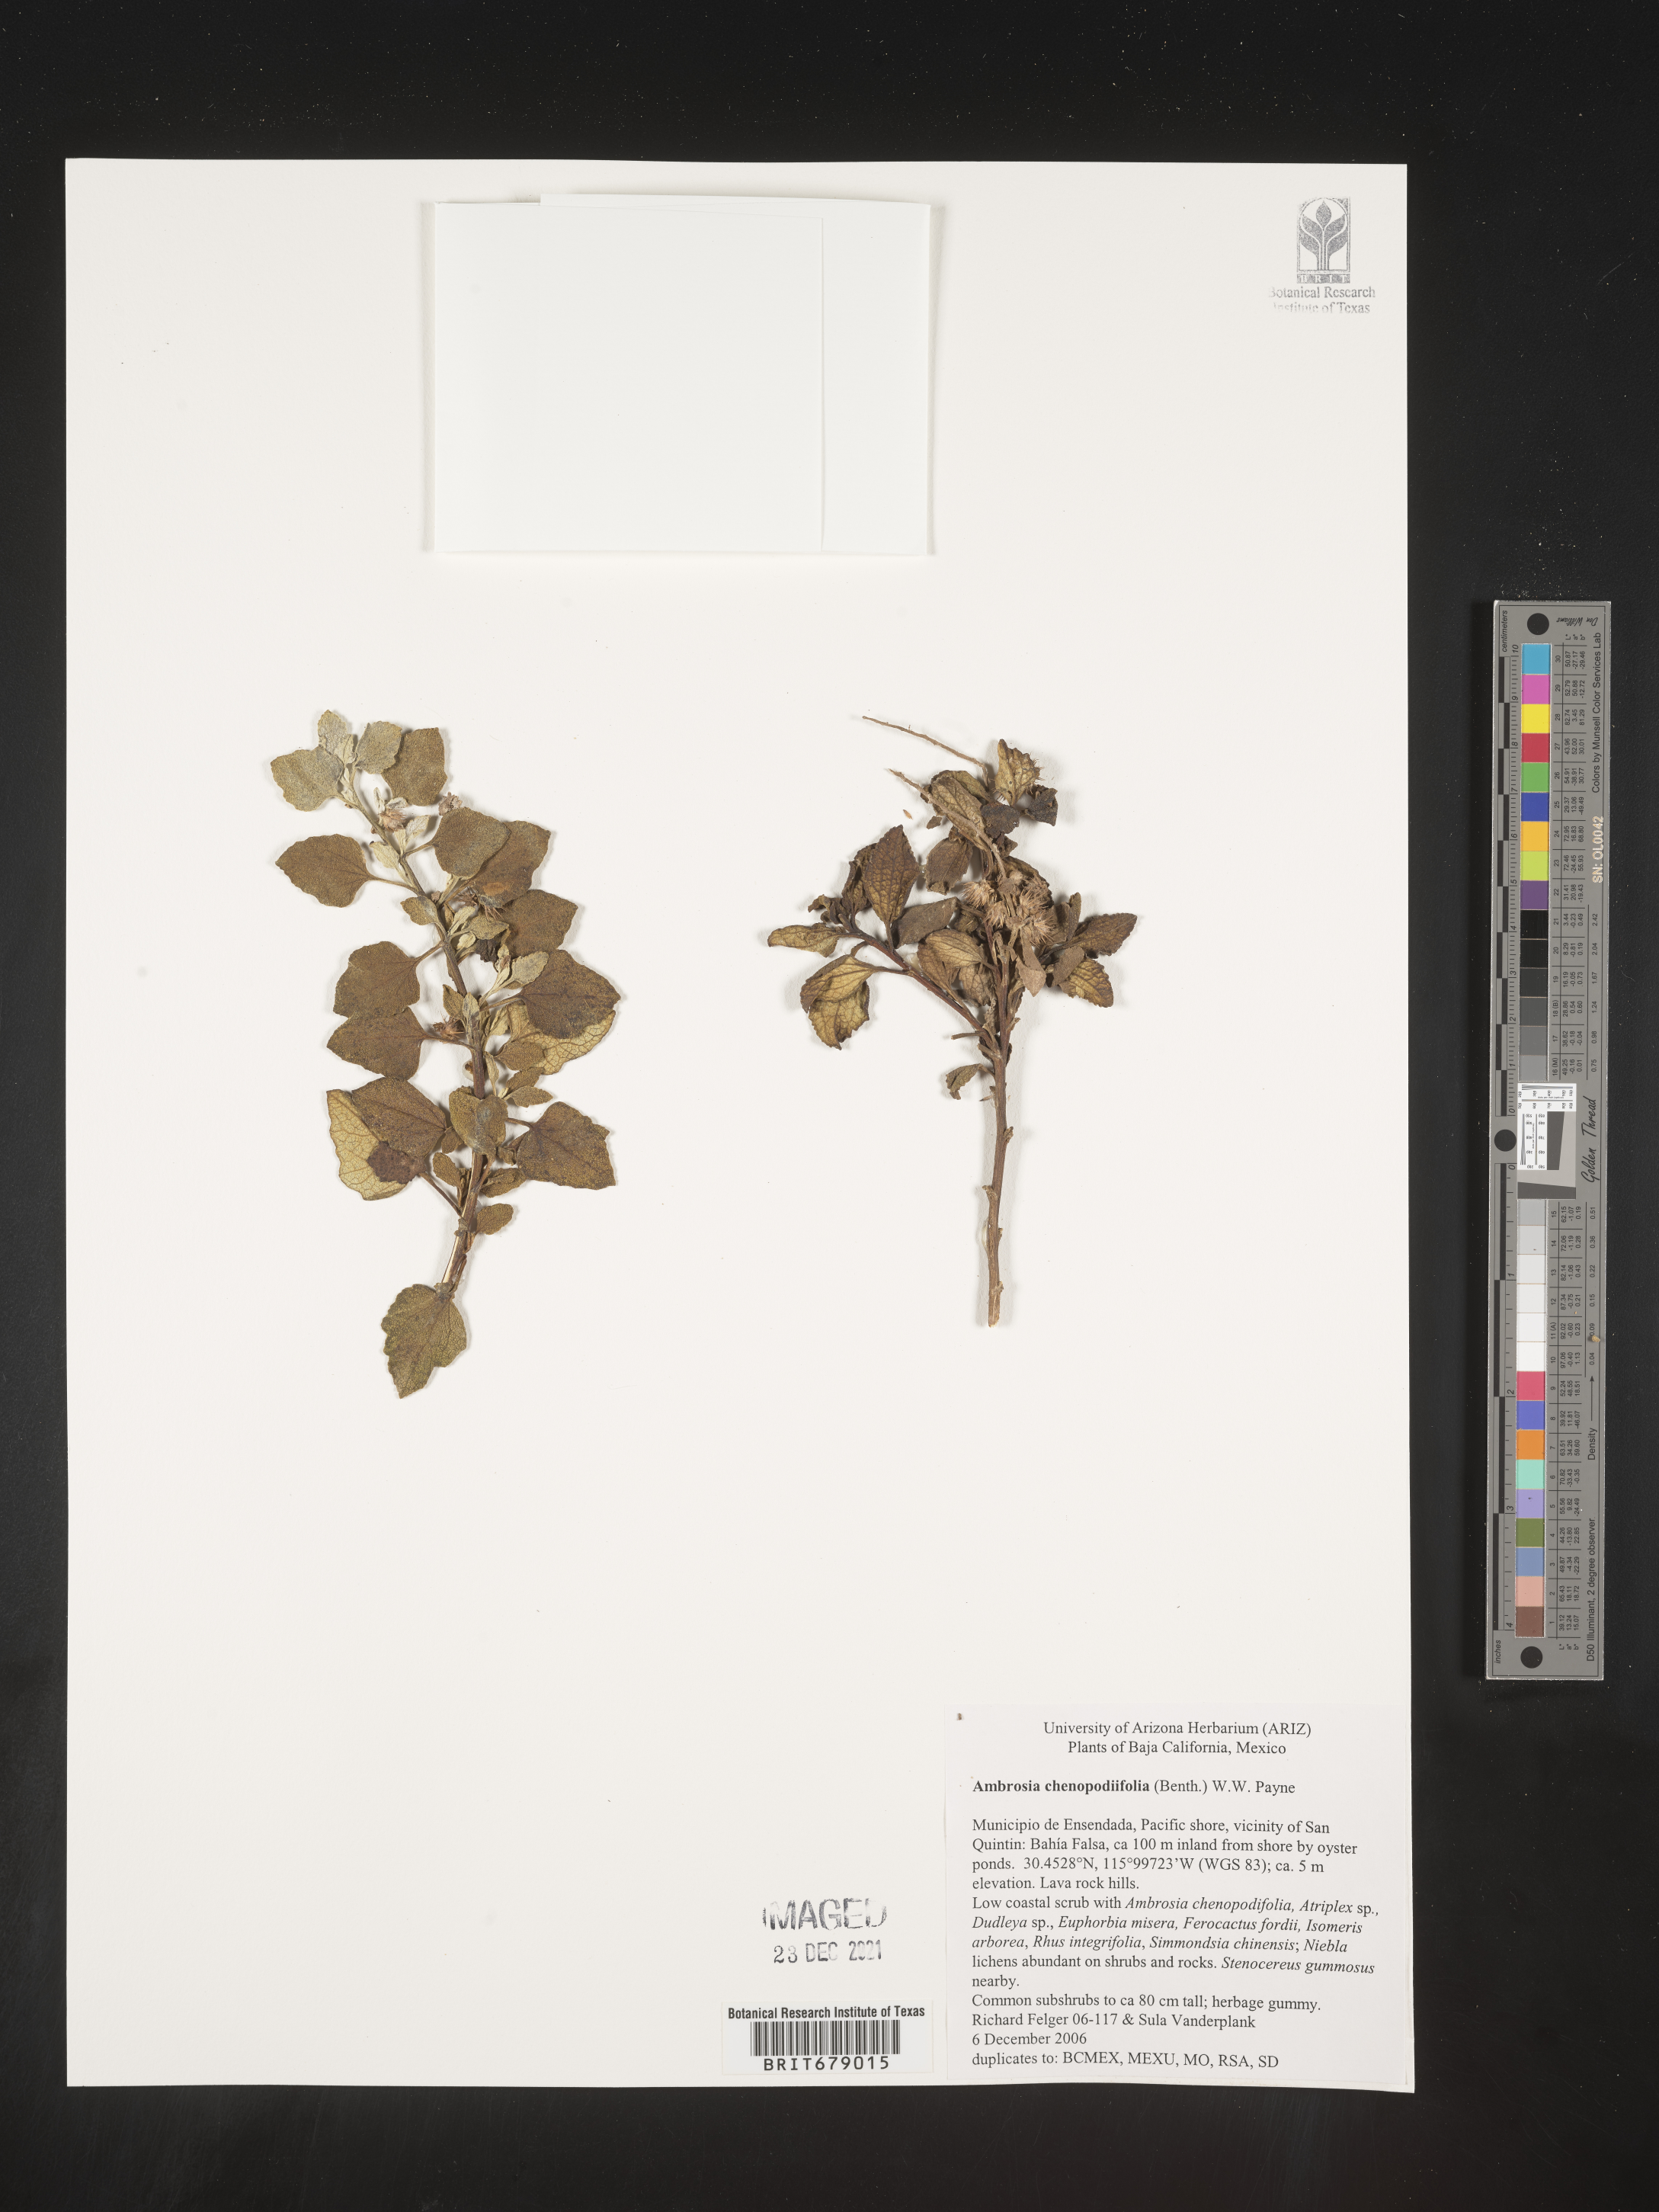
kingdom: Plantae
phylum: Tracheophyta
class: Magnoliopsida
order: Asterales
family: Asteraceae
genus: Ambrosia
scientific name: Ambrosia
